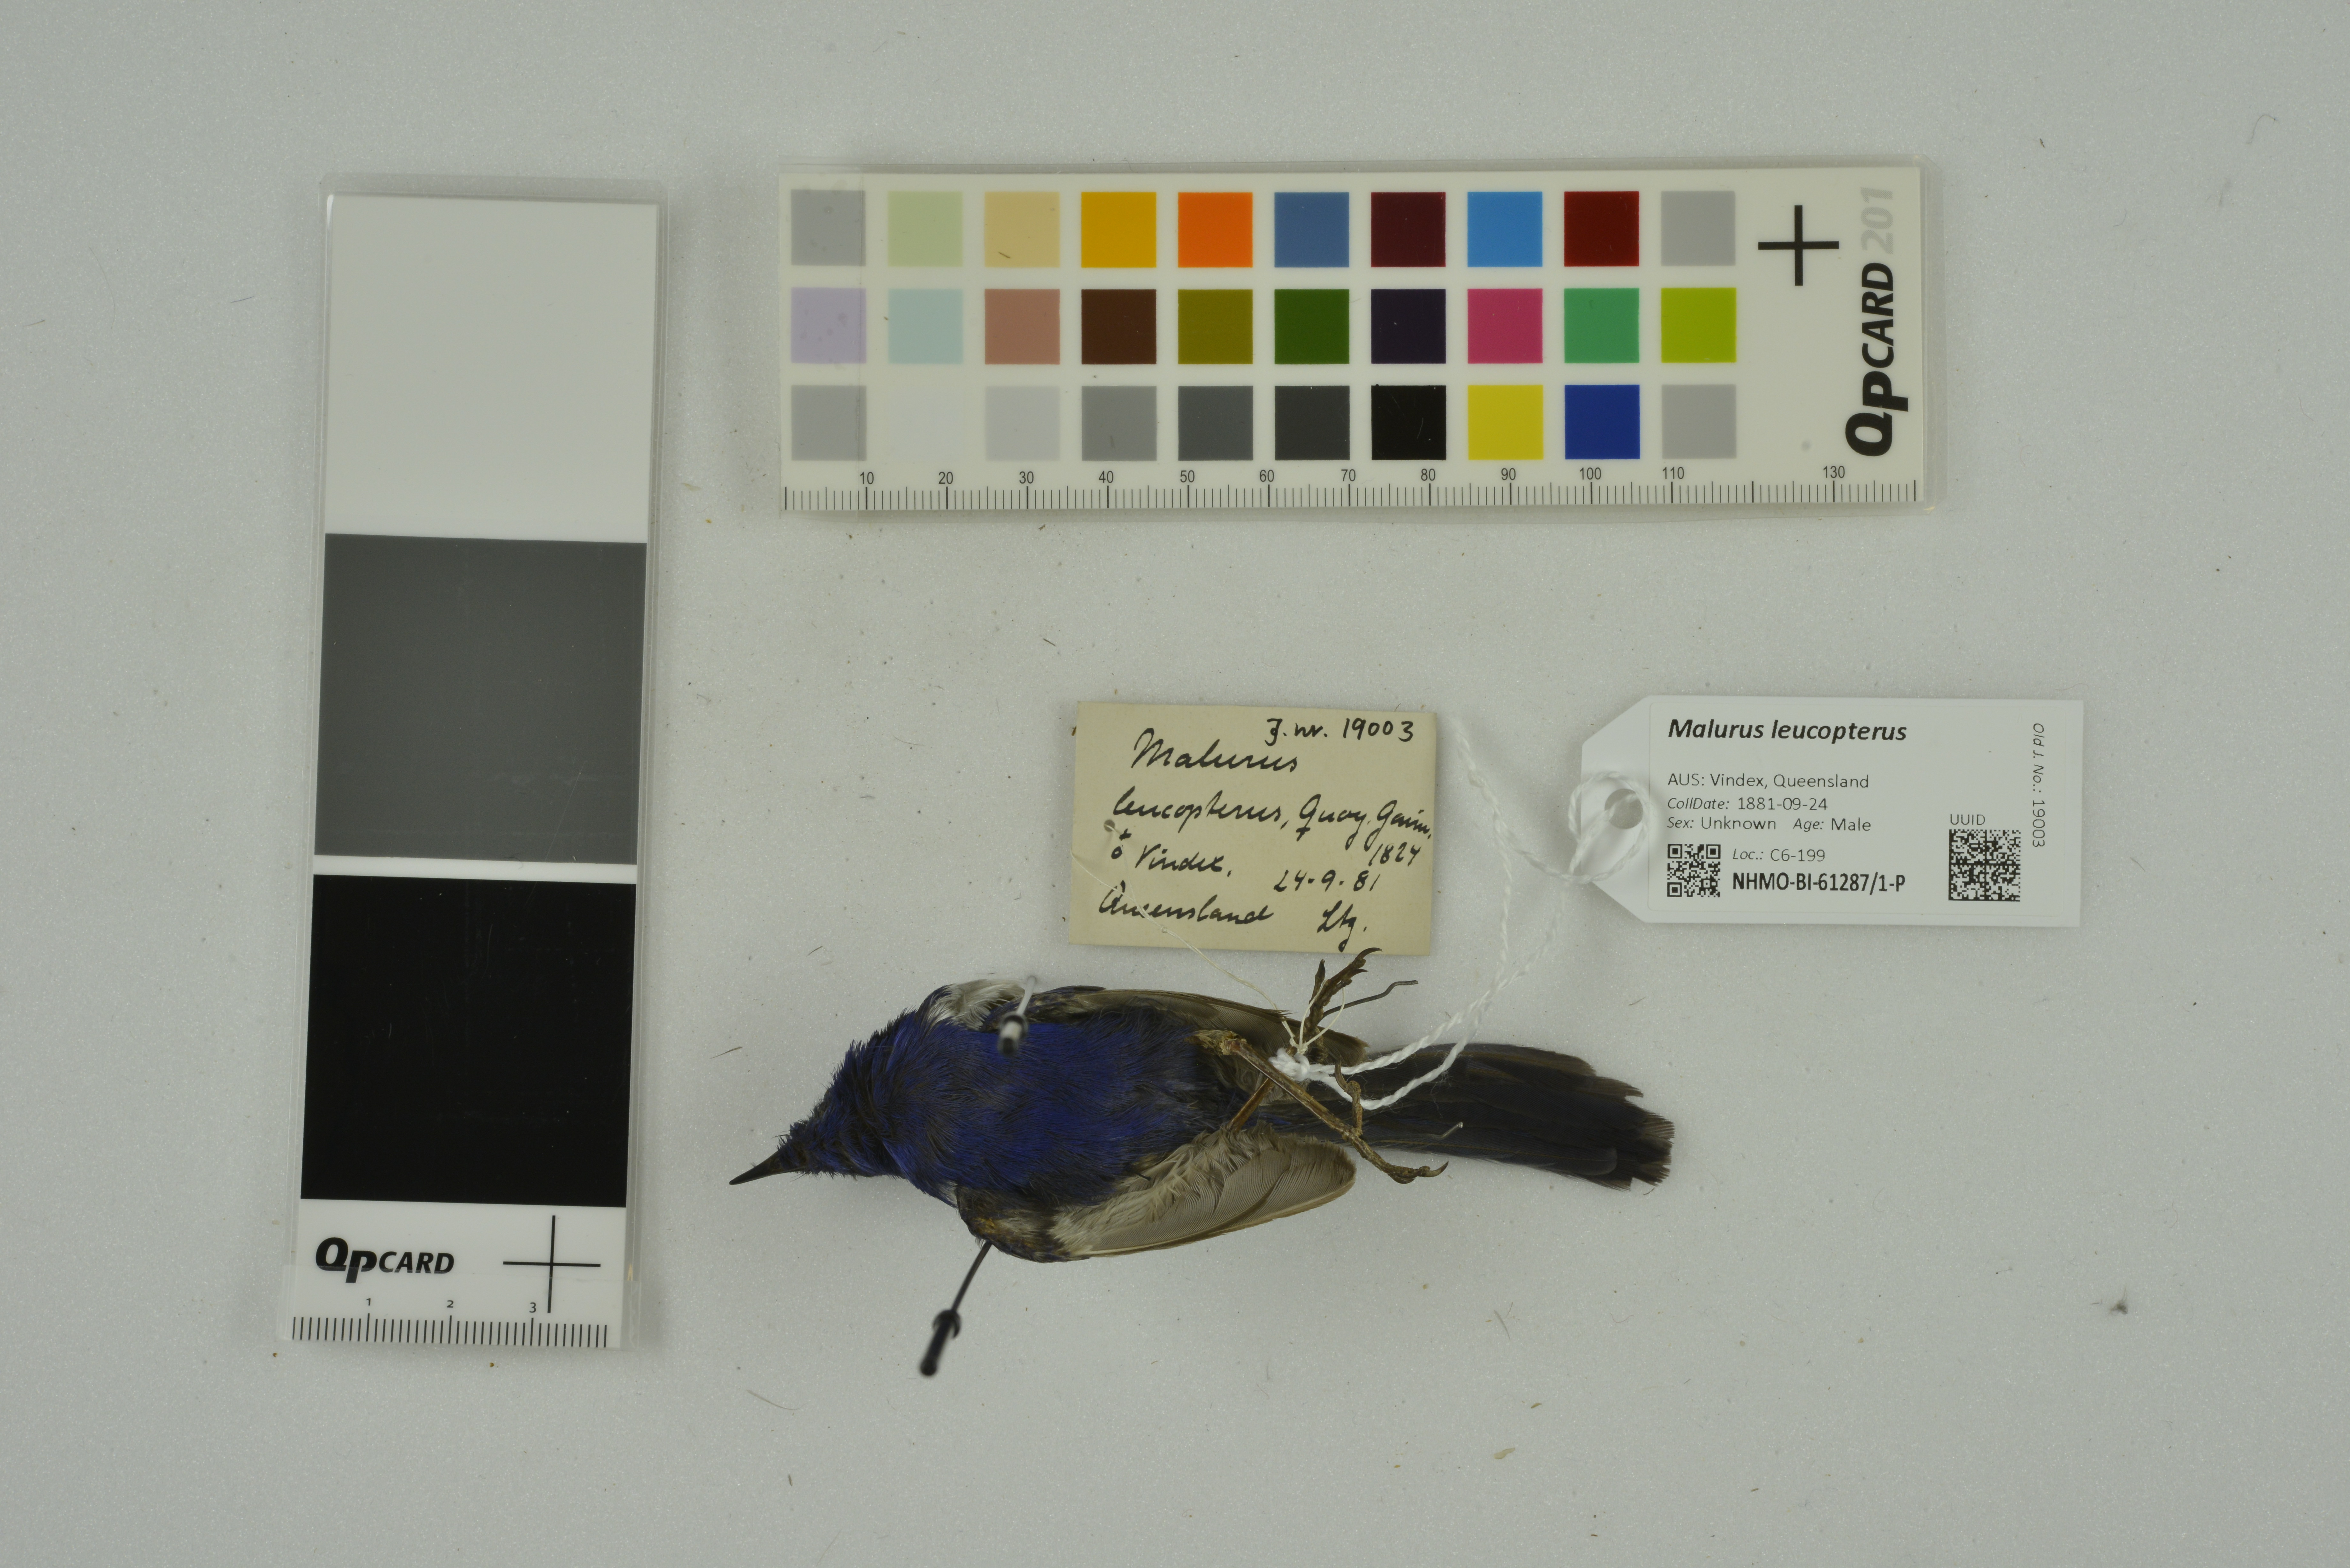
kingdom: Animalia
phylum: Chordata
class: Aves
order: Passeriformes
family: Maluridae
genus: Malurus
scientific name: Malurus leucopterus
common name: White-winged fairywren
